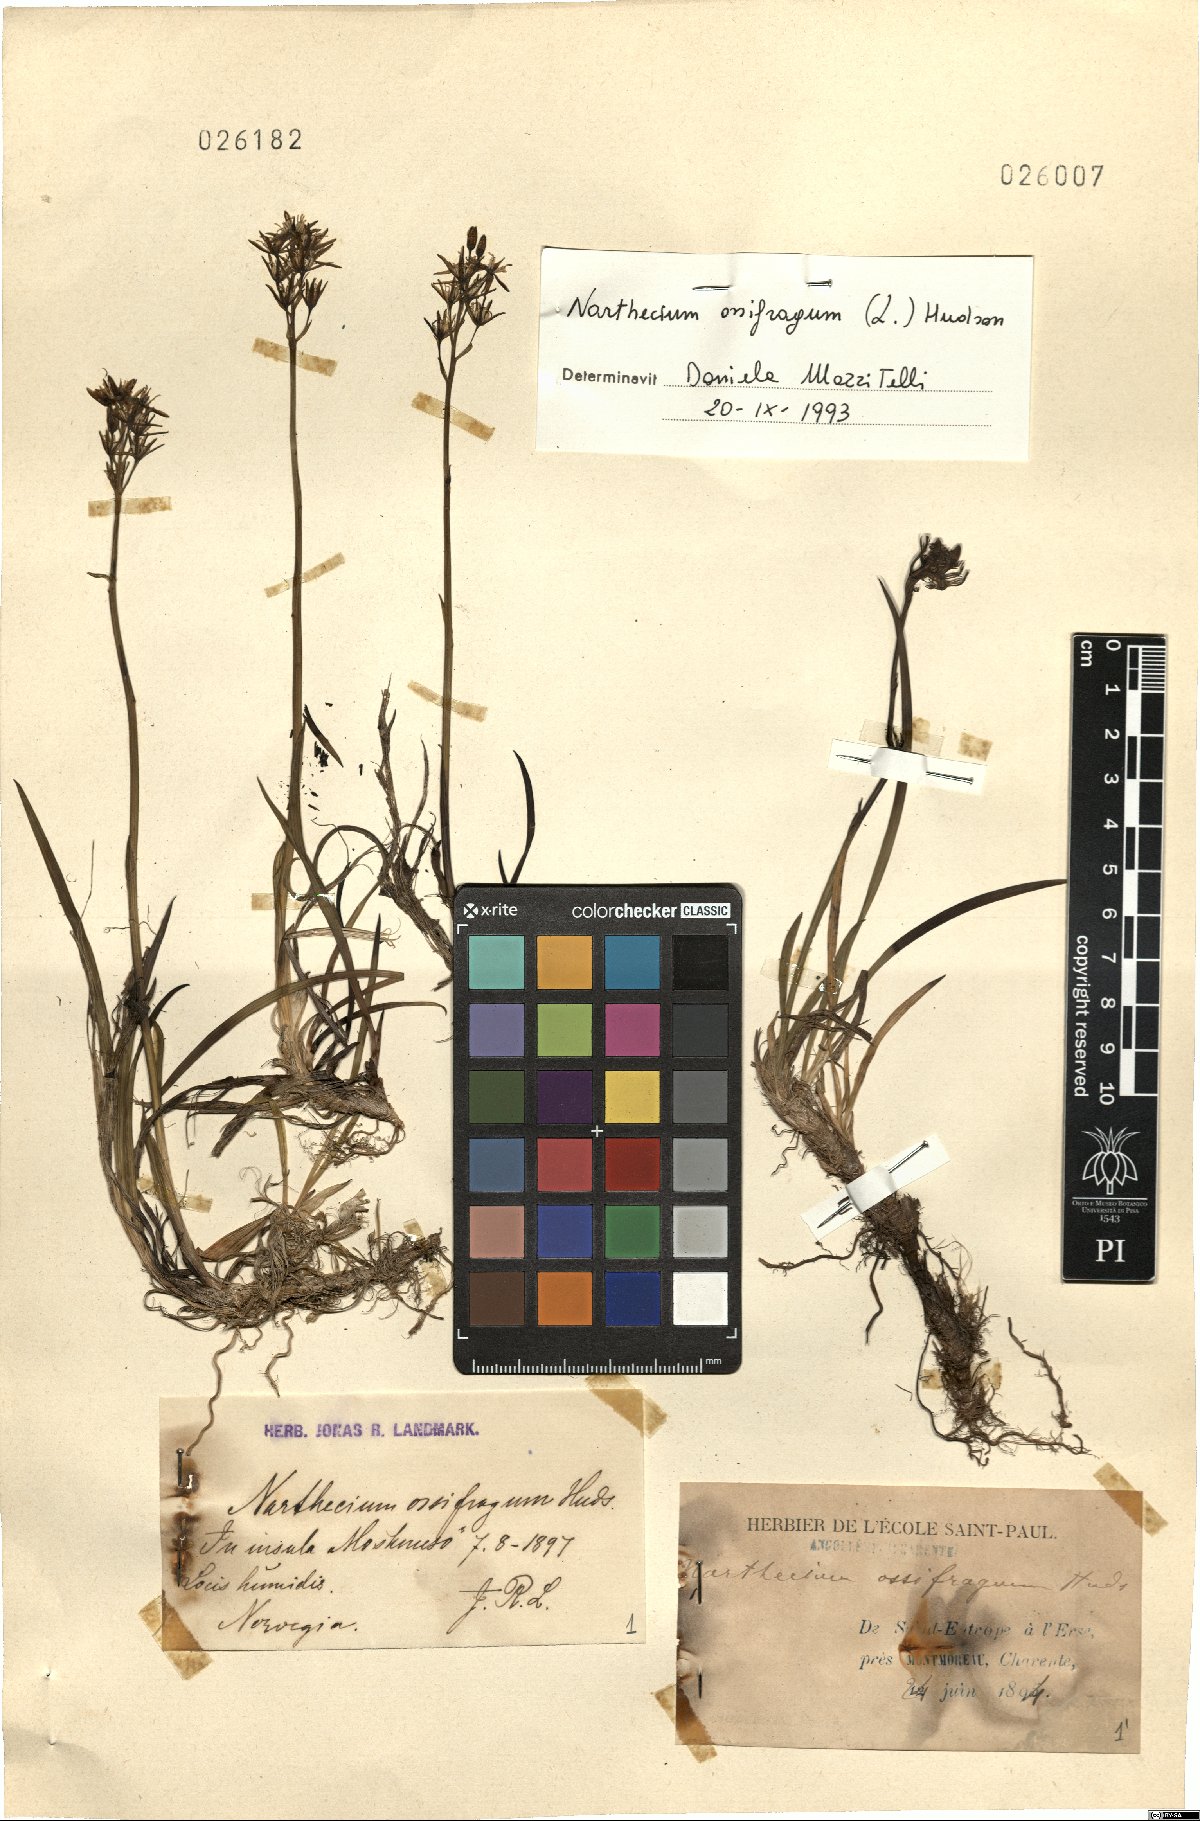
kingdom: Plantae
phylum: Tracheophyta
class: Liliopsida
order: Dioscoreales
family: Nartheciaceae
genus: Narthecium
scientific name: Narthecium ossifragum
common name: Bog asphodel
